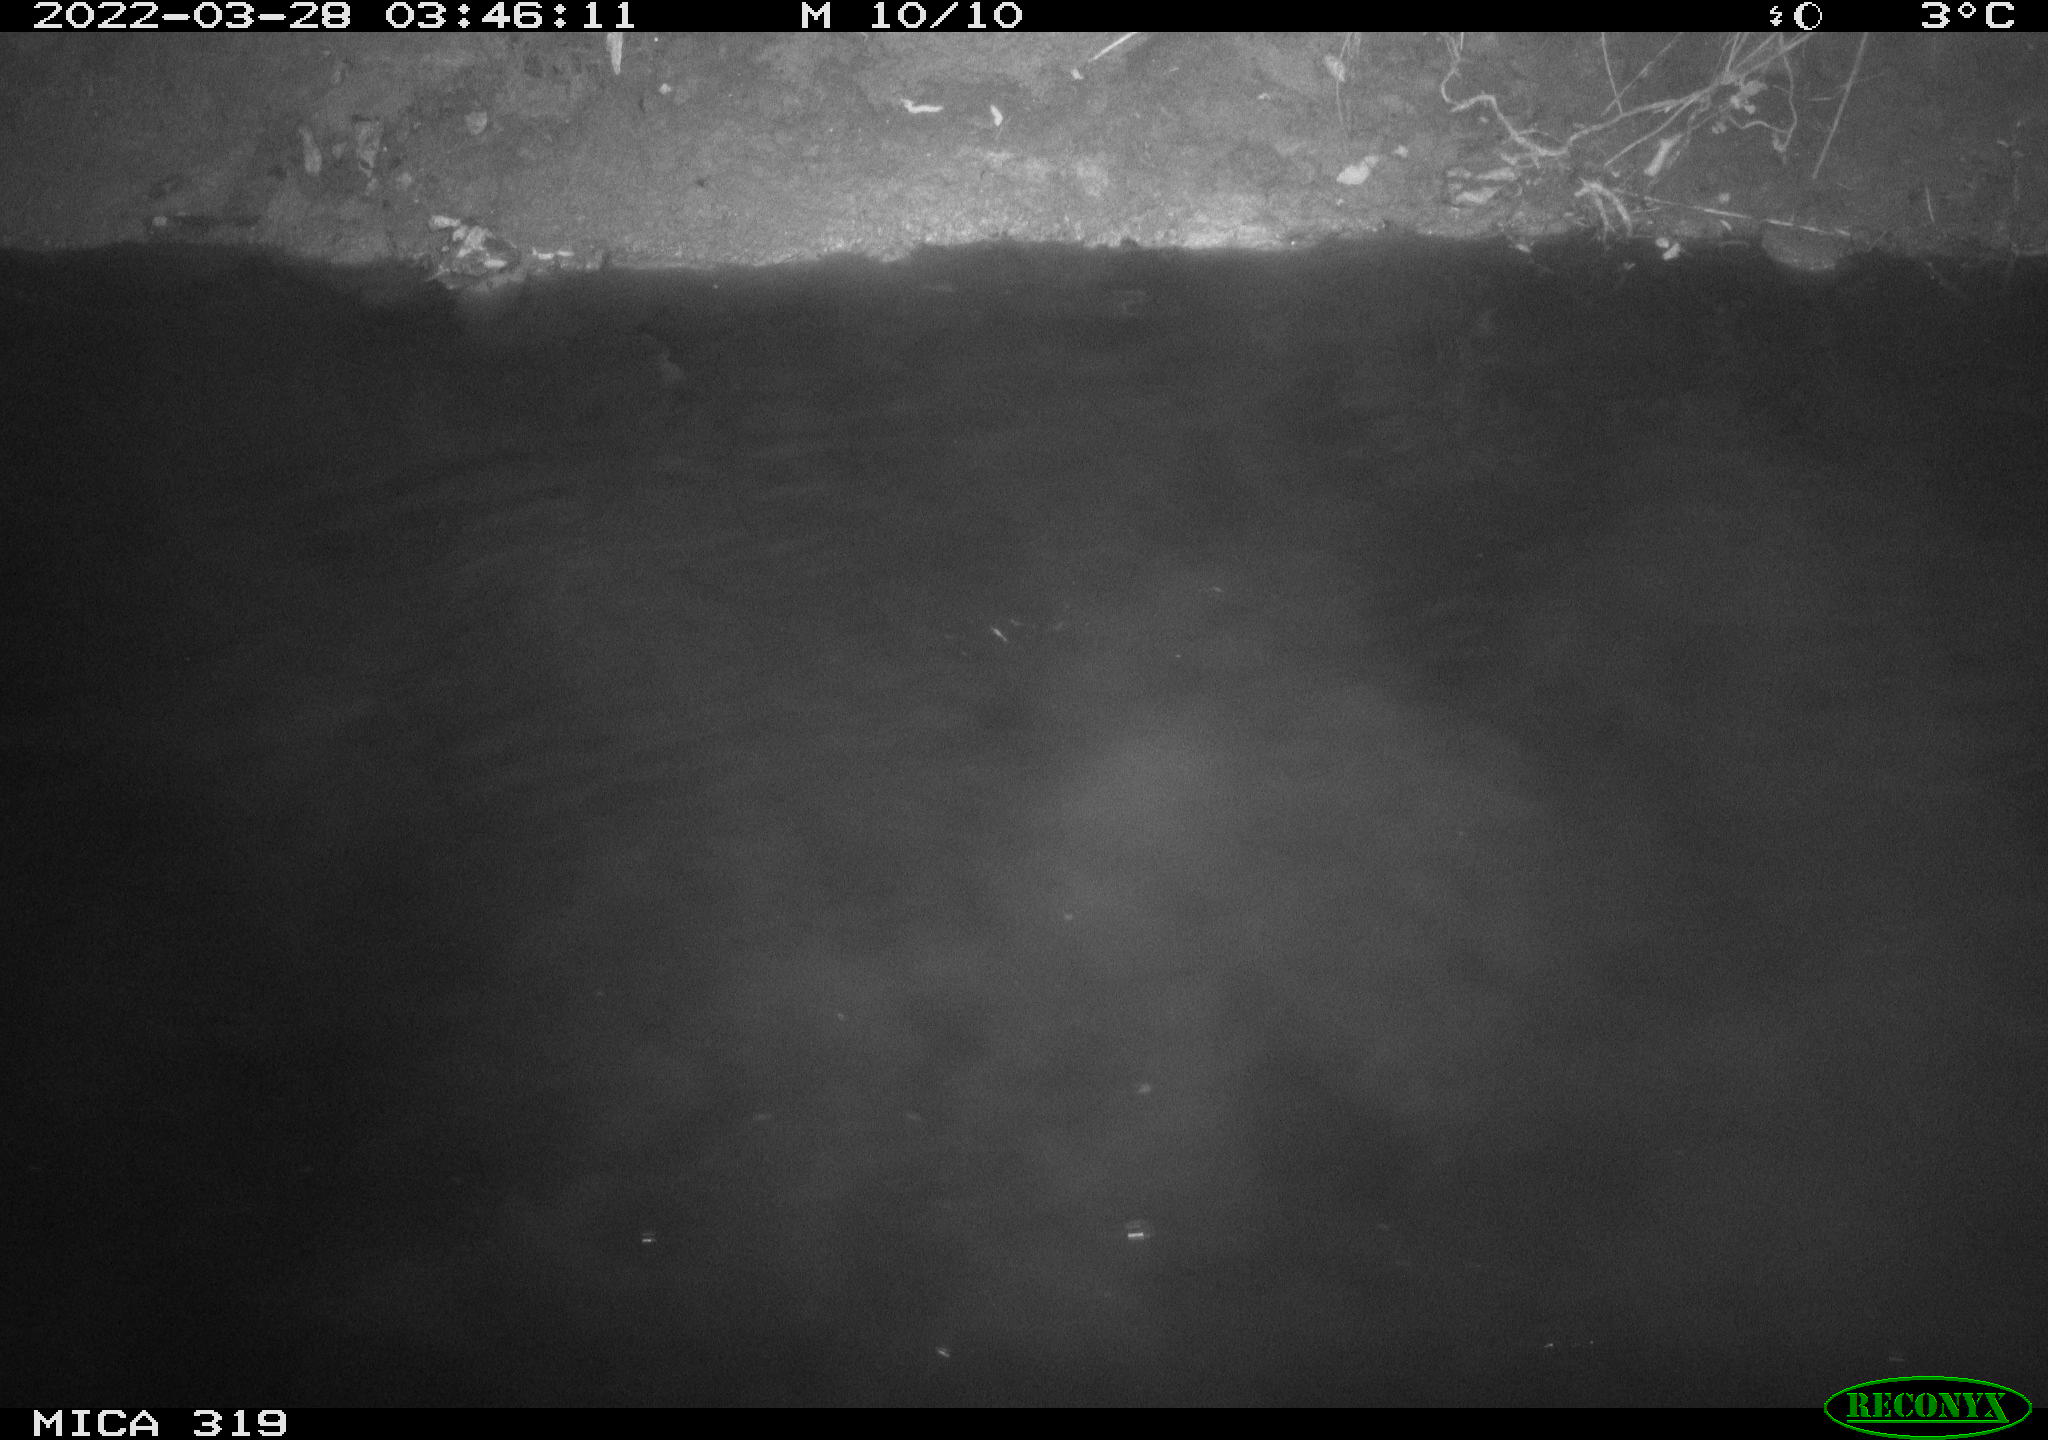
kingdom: Animalia
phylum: Chordata
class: Aves
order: Anseriformes
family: Anatidae
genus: Anas
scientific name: Anas platyrhynchos
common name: Mallard
